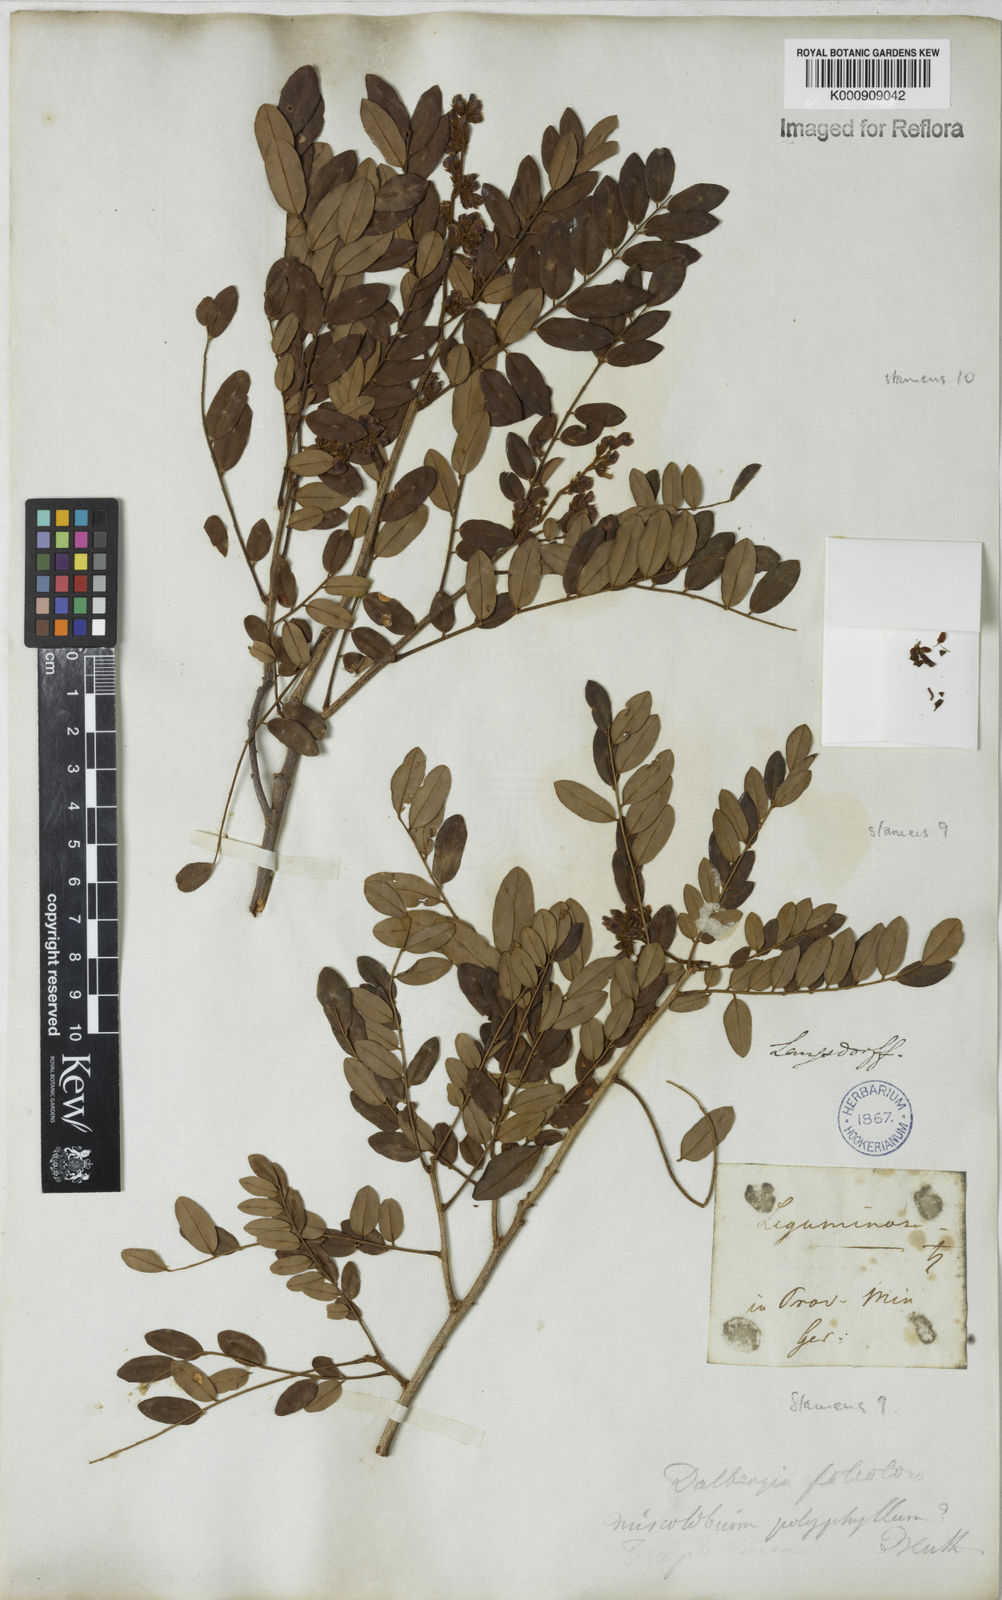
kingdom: Plantae
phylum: Tracheophyta
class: Magnoliopsida
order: Fabales
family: Fabaceae
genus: Dalbergia
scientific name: Dalbergia foliolosa
